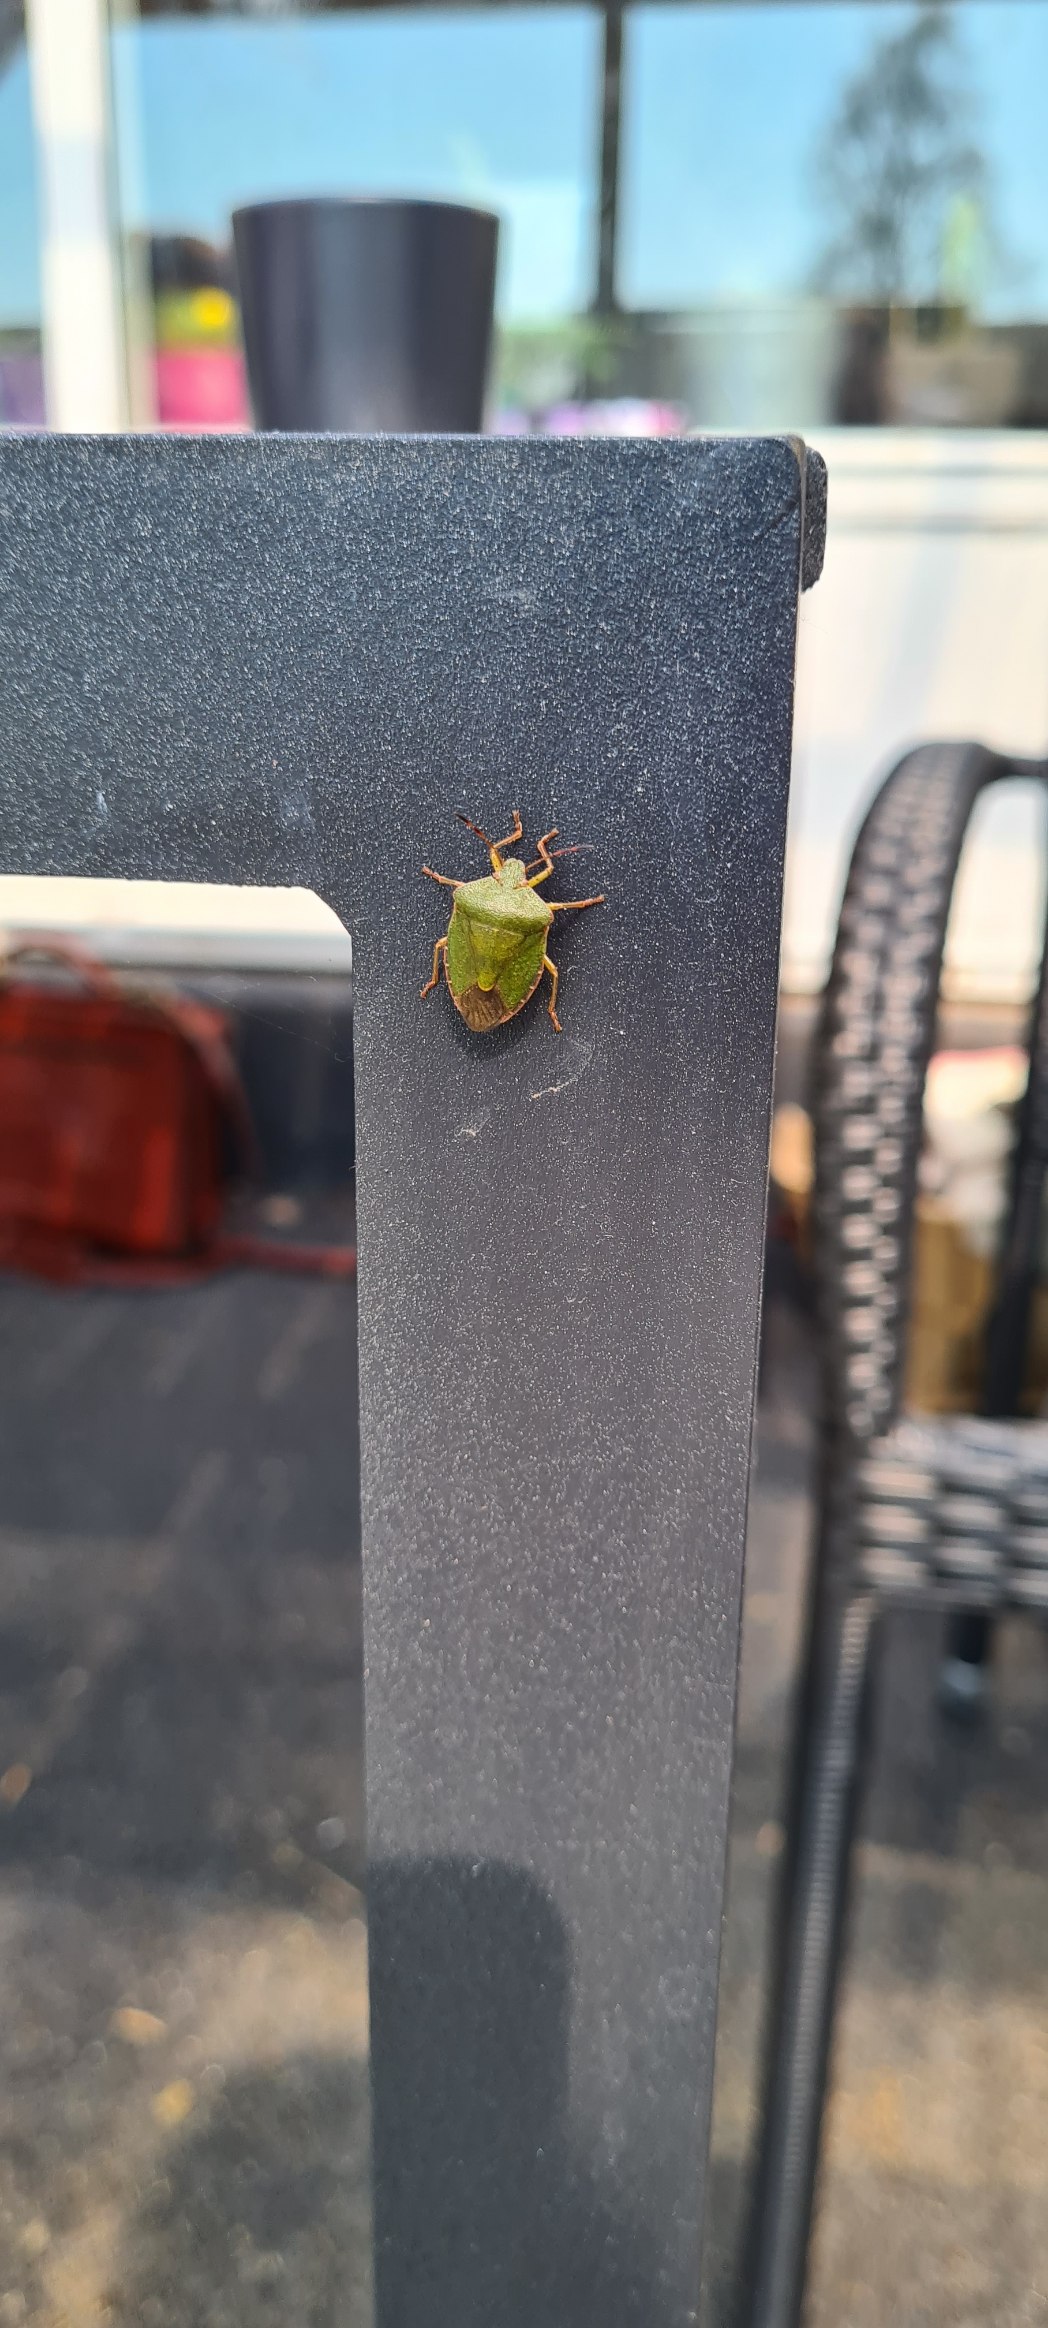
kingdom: Animalia
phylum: Arthropoda
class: Insecta
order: Hemiptera
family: Pentatomidae
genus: Palomena
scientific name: Palomena prasina
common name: Grøn bredtæge
